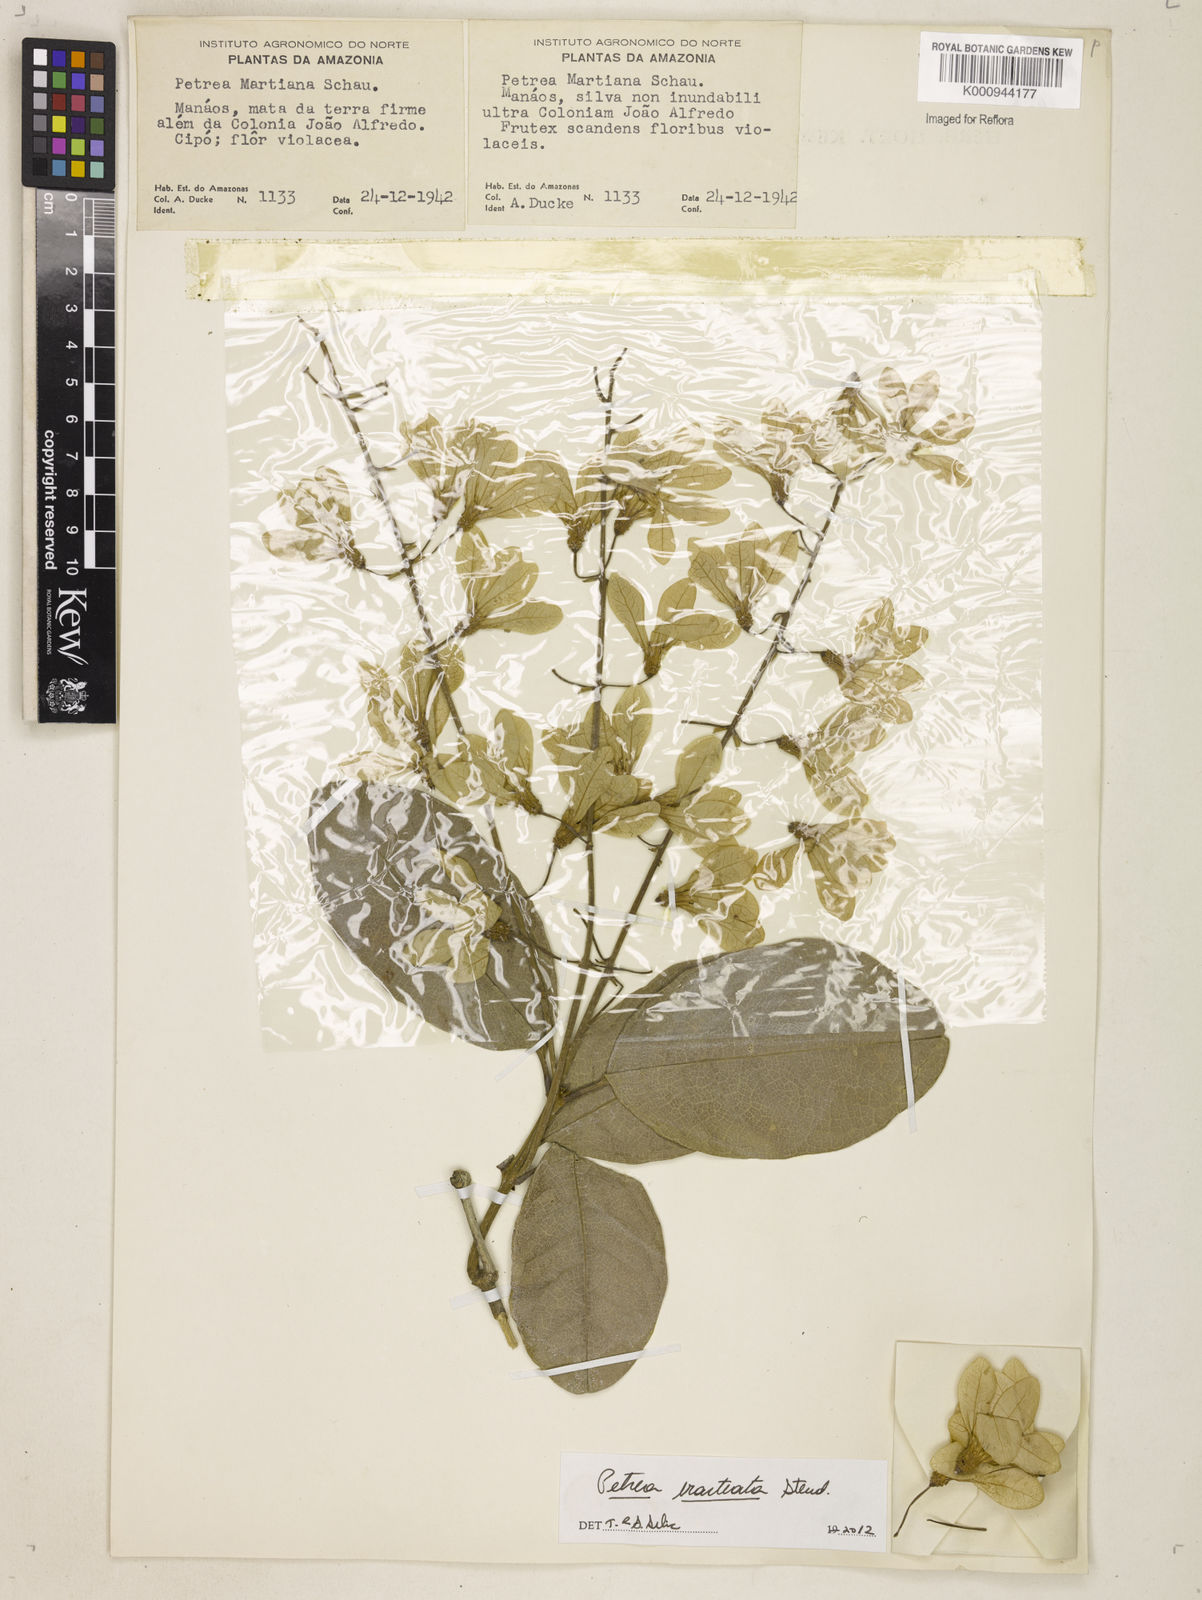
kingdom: Plantae
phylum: Tracheophyta
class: Magnoliopsida
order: Lamiales
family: Verbenaceae
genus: Petrea
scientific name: Petrea bracteata
